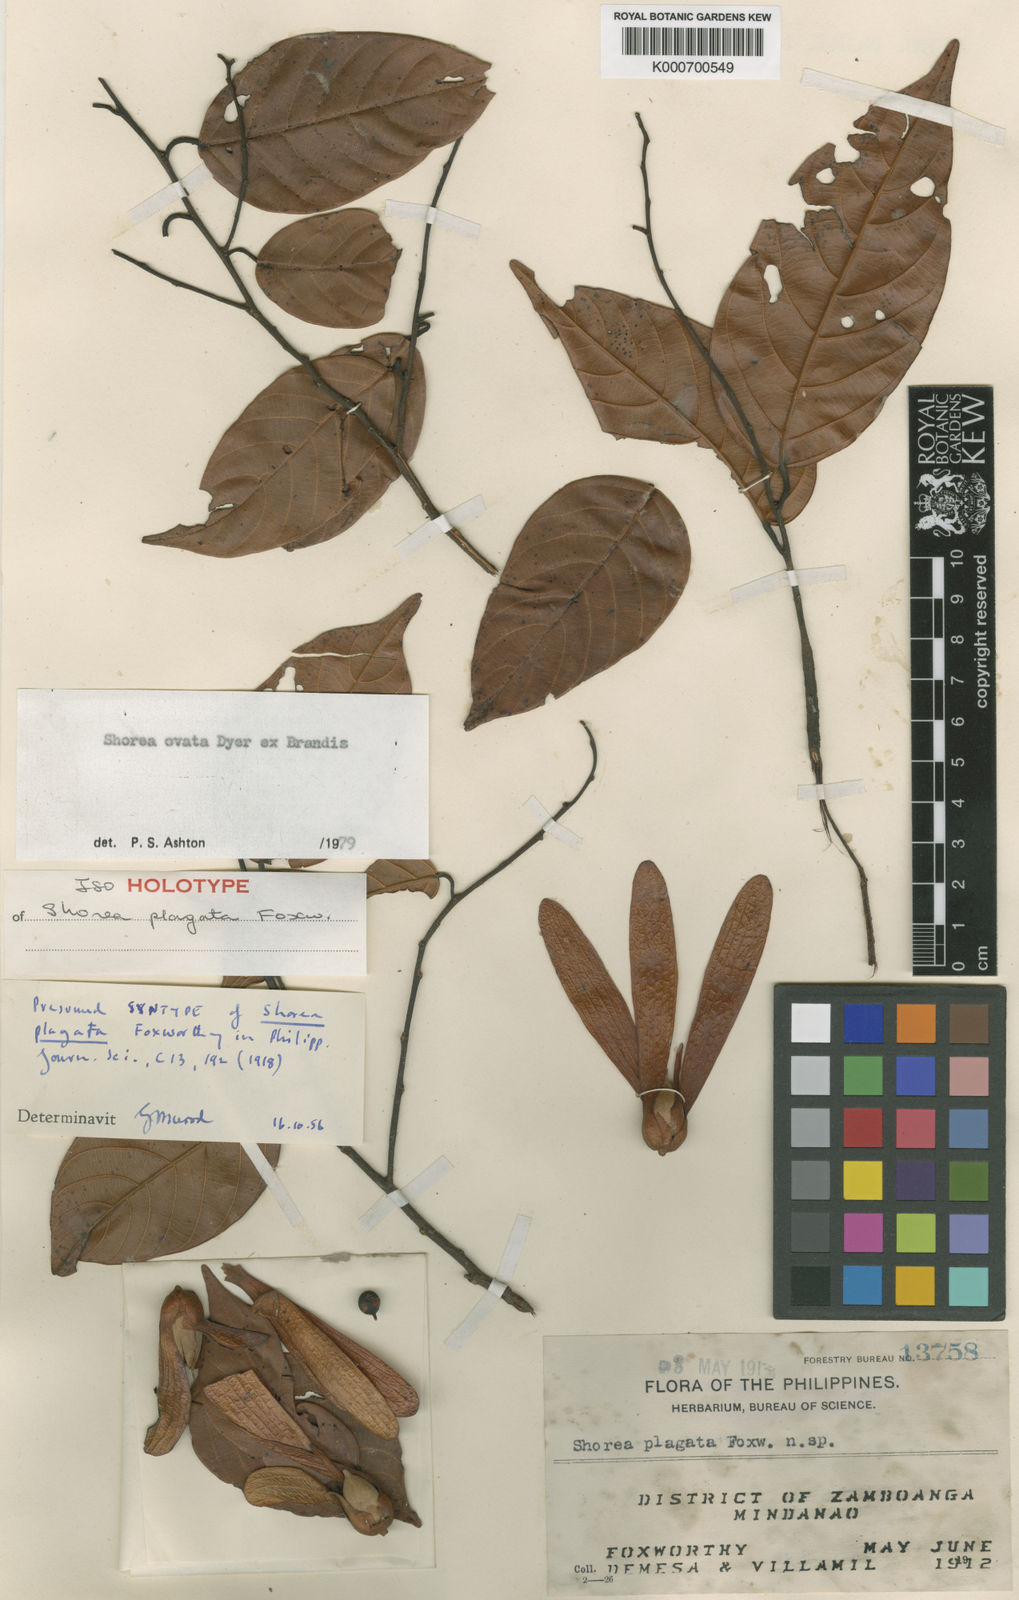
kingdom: Plantae
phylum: Tracheophyta
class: Magnoliopsida
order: Malvales
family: Dipterocarpaceae
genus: Shorea
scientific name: Shorea ovata
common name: Dark red meranti
